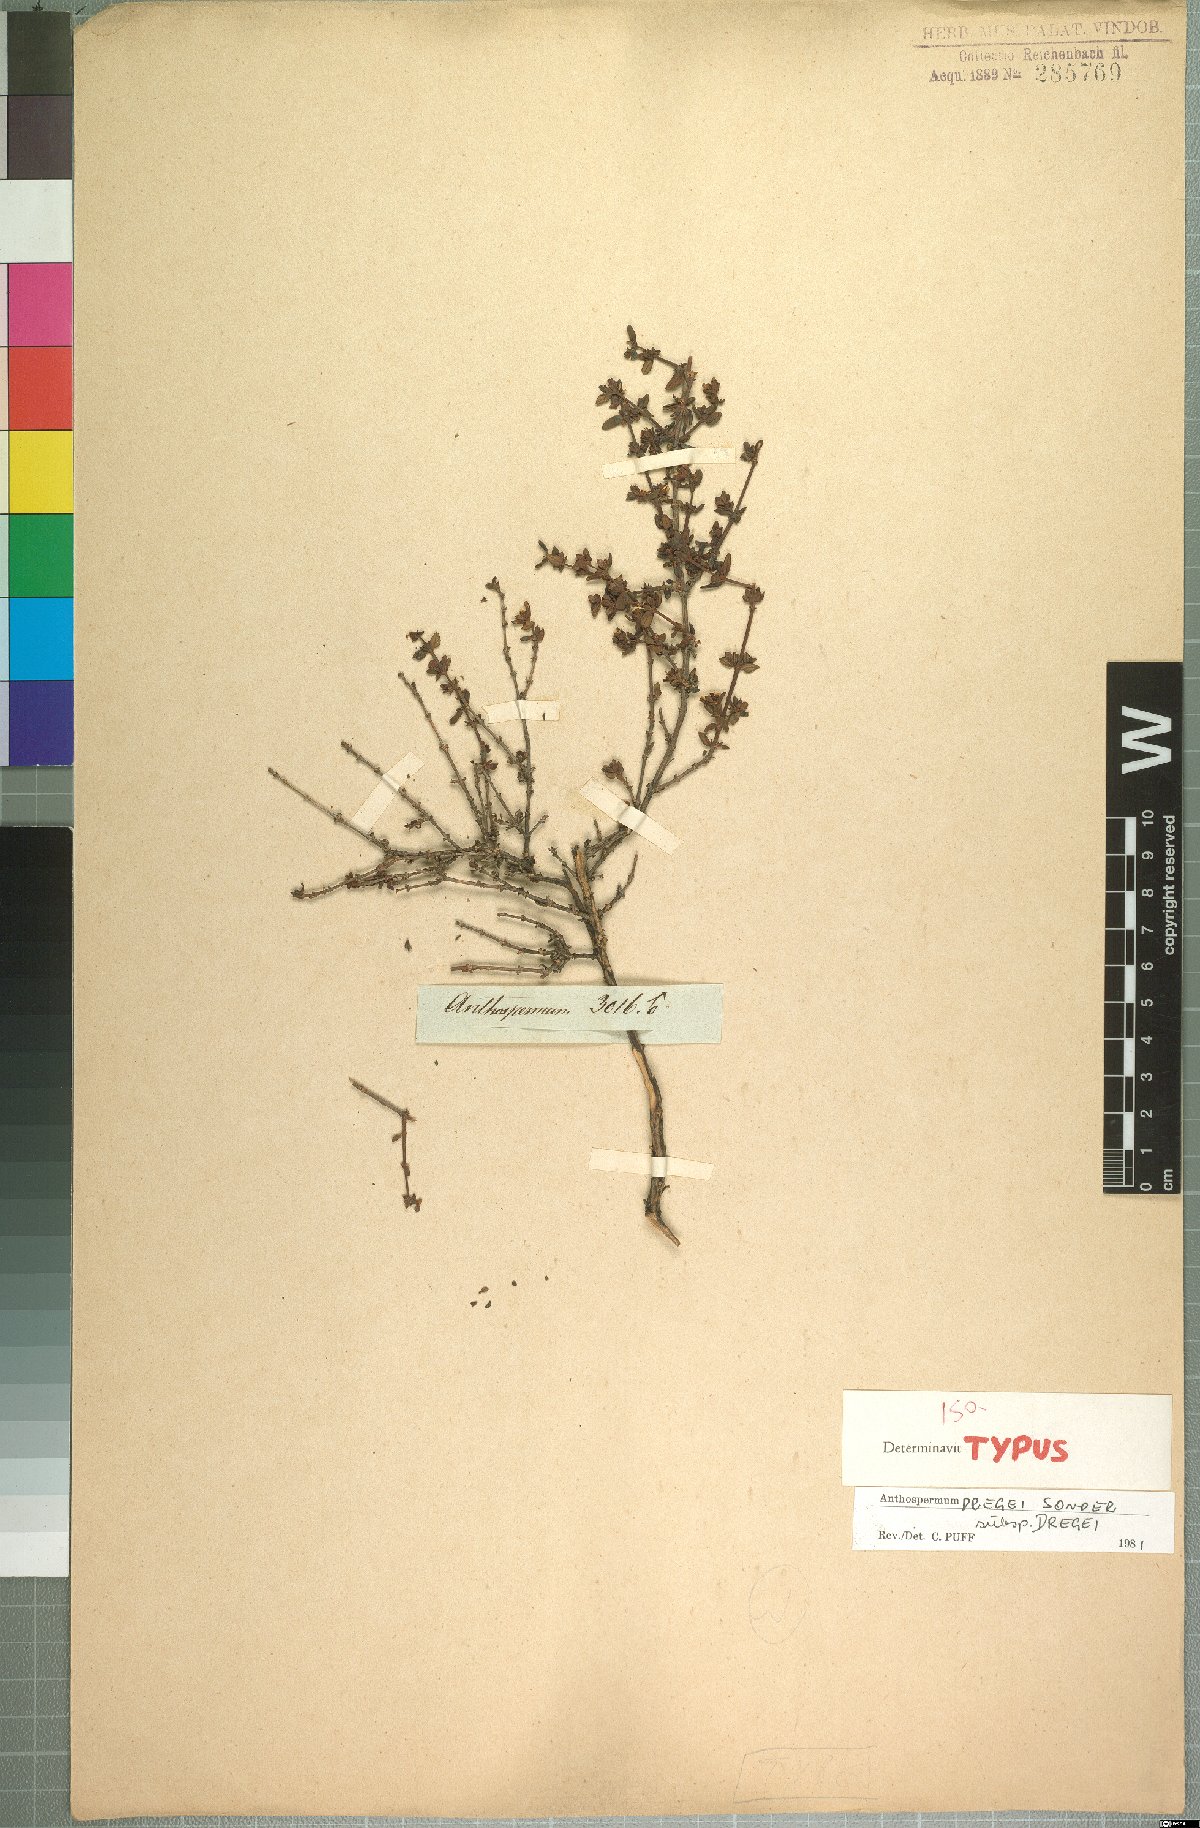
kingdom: Plantae
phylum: Tracheophyta
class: Magnoliopsida
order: Gentianales
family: Rubiaceae
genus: Anthospermum
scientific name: Anthospermum dregei
